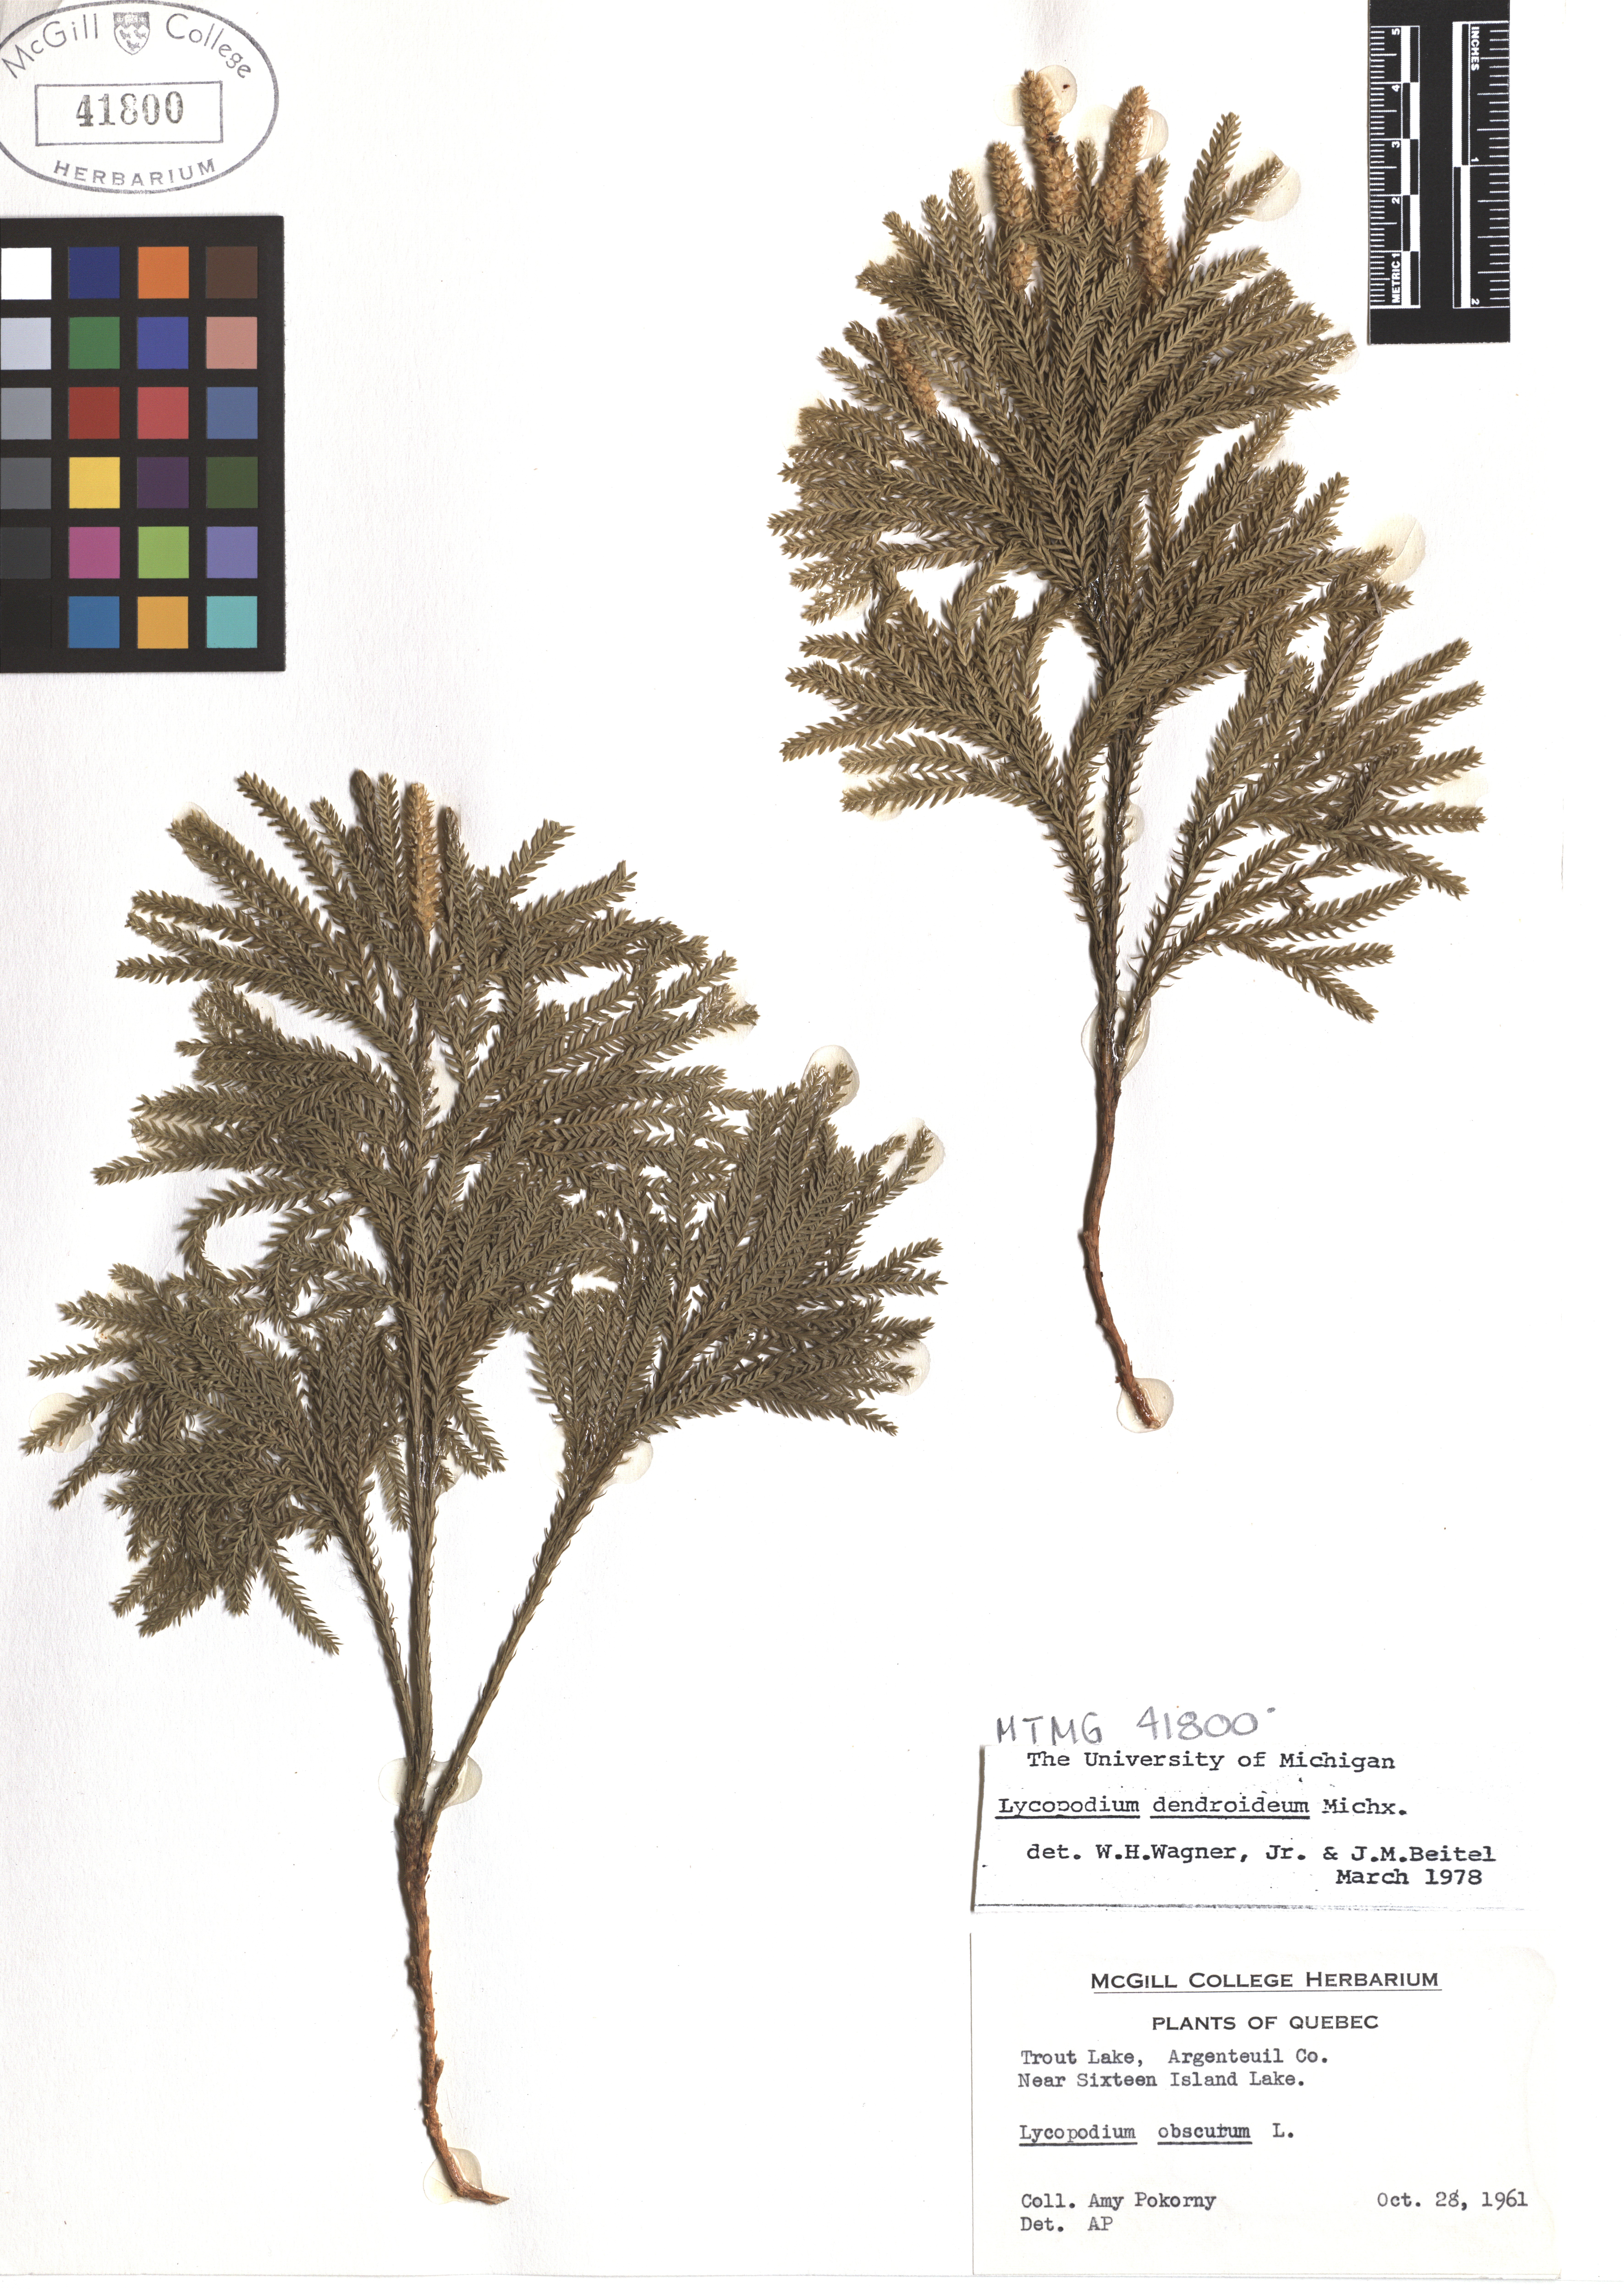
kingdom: Plantae
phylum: Tracheophyta
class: Lycopodiopsida
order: Lycopodiales
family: Lycopodiaceae
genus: Dendrolycopodium
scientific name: Dendrolycopodium dendroideum
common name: Northern tree-clubmoss
